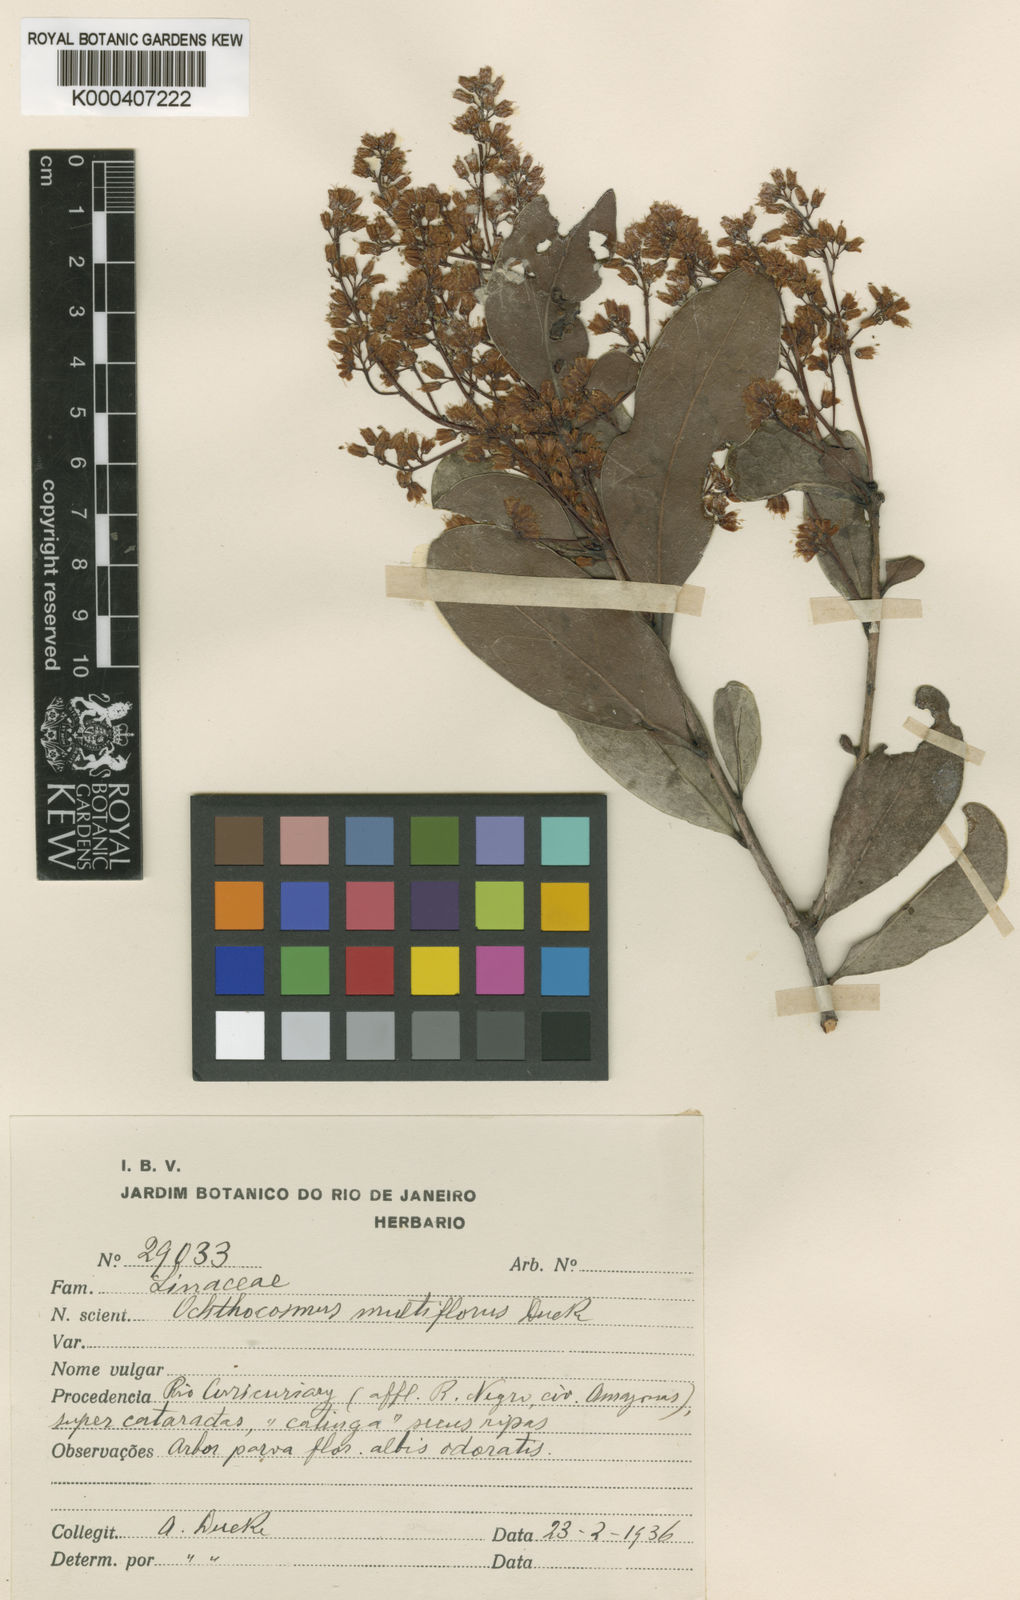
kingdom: Plantae
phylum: Tracheophyta
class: Magnoliopsida
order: Malpighiales
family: Ixonanthaceae
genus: Ochthocosmus
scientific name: Ochthocosmus multiflorus
